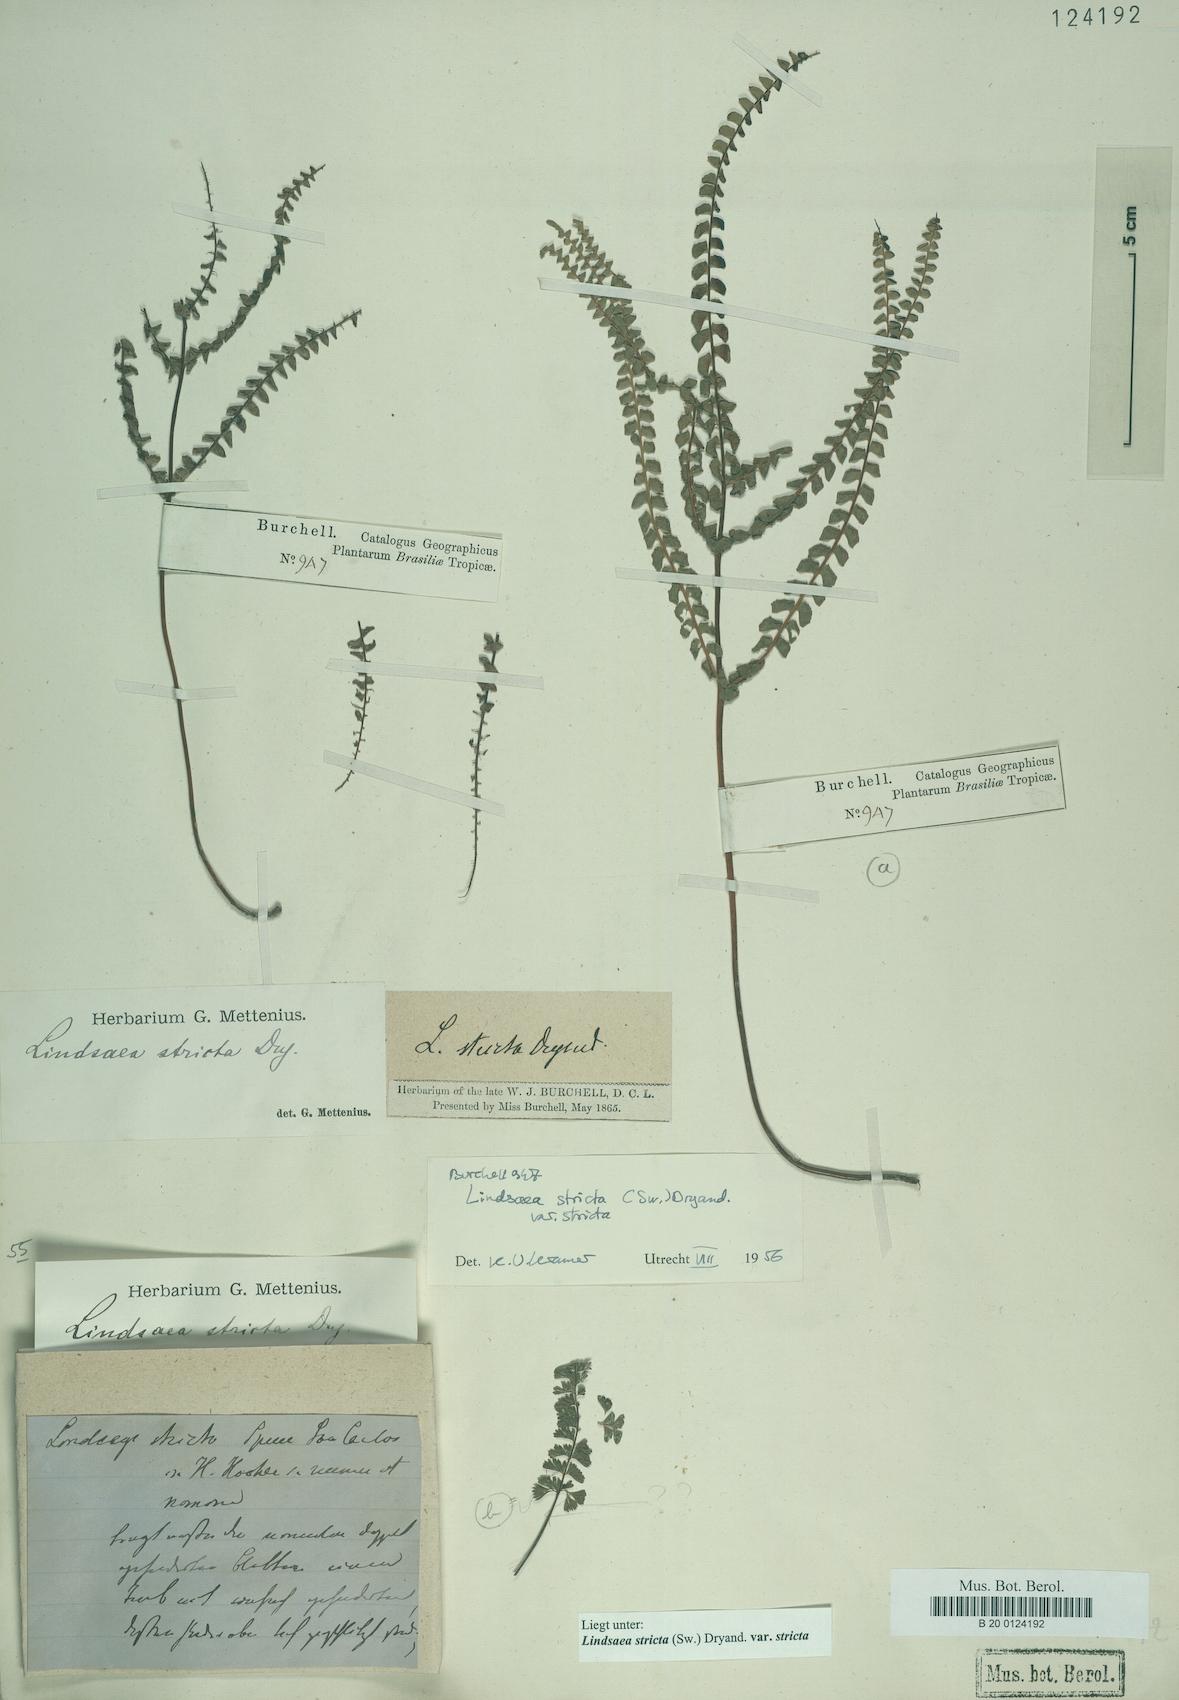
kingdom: Plantae
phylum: Tracheophyta
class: Polypodiopsida
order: Polypodiales
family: Lindsaeaceae
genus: Lindsaea
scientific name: Lindsaea stricta
